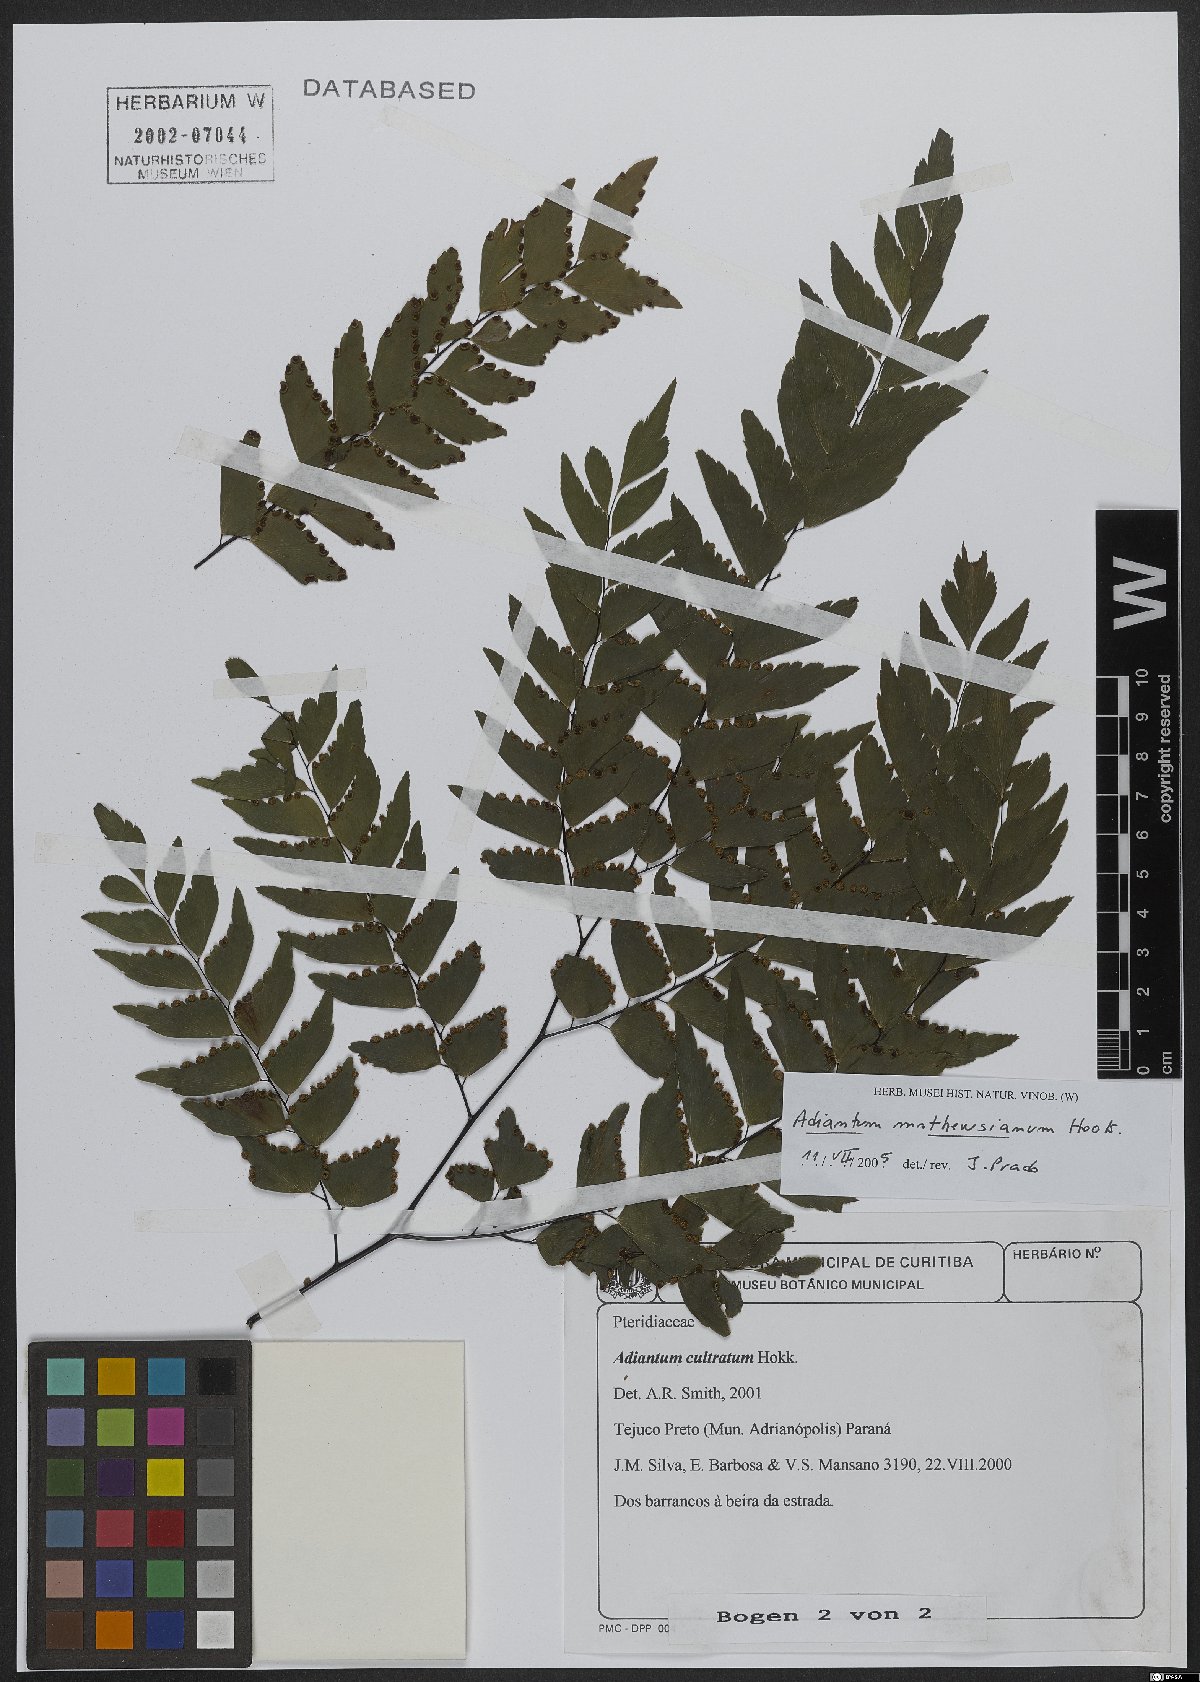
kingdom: Plantae
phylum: Tracheophyta
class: Polypodiopsida
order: Polypodiales
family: Pteridaceae
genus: Adiantum
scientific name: Adiantum mathewsianum
